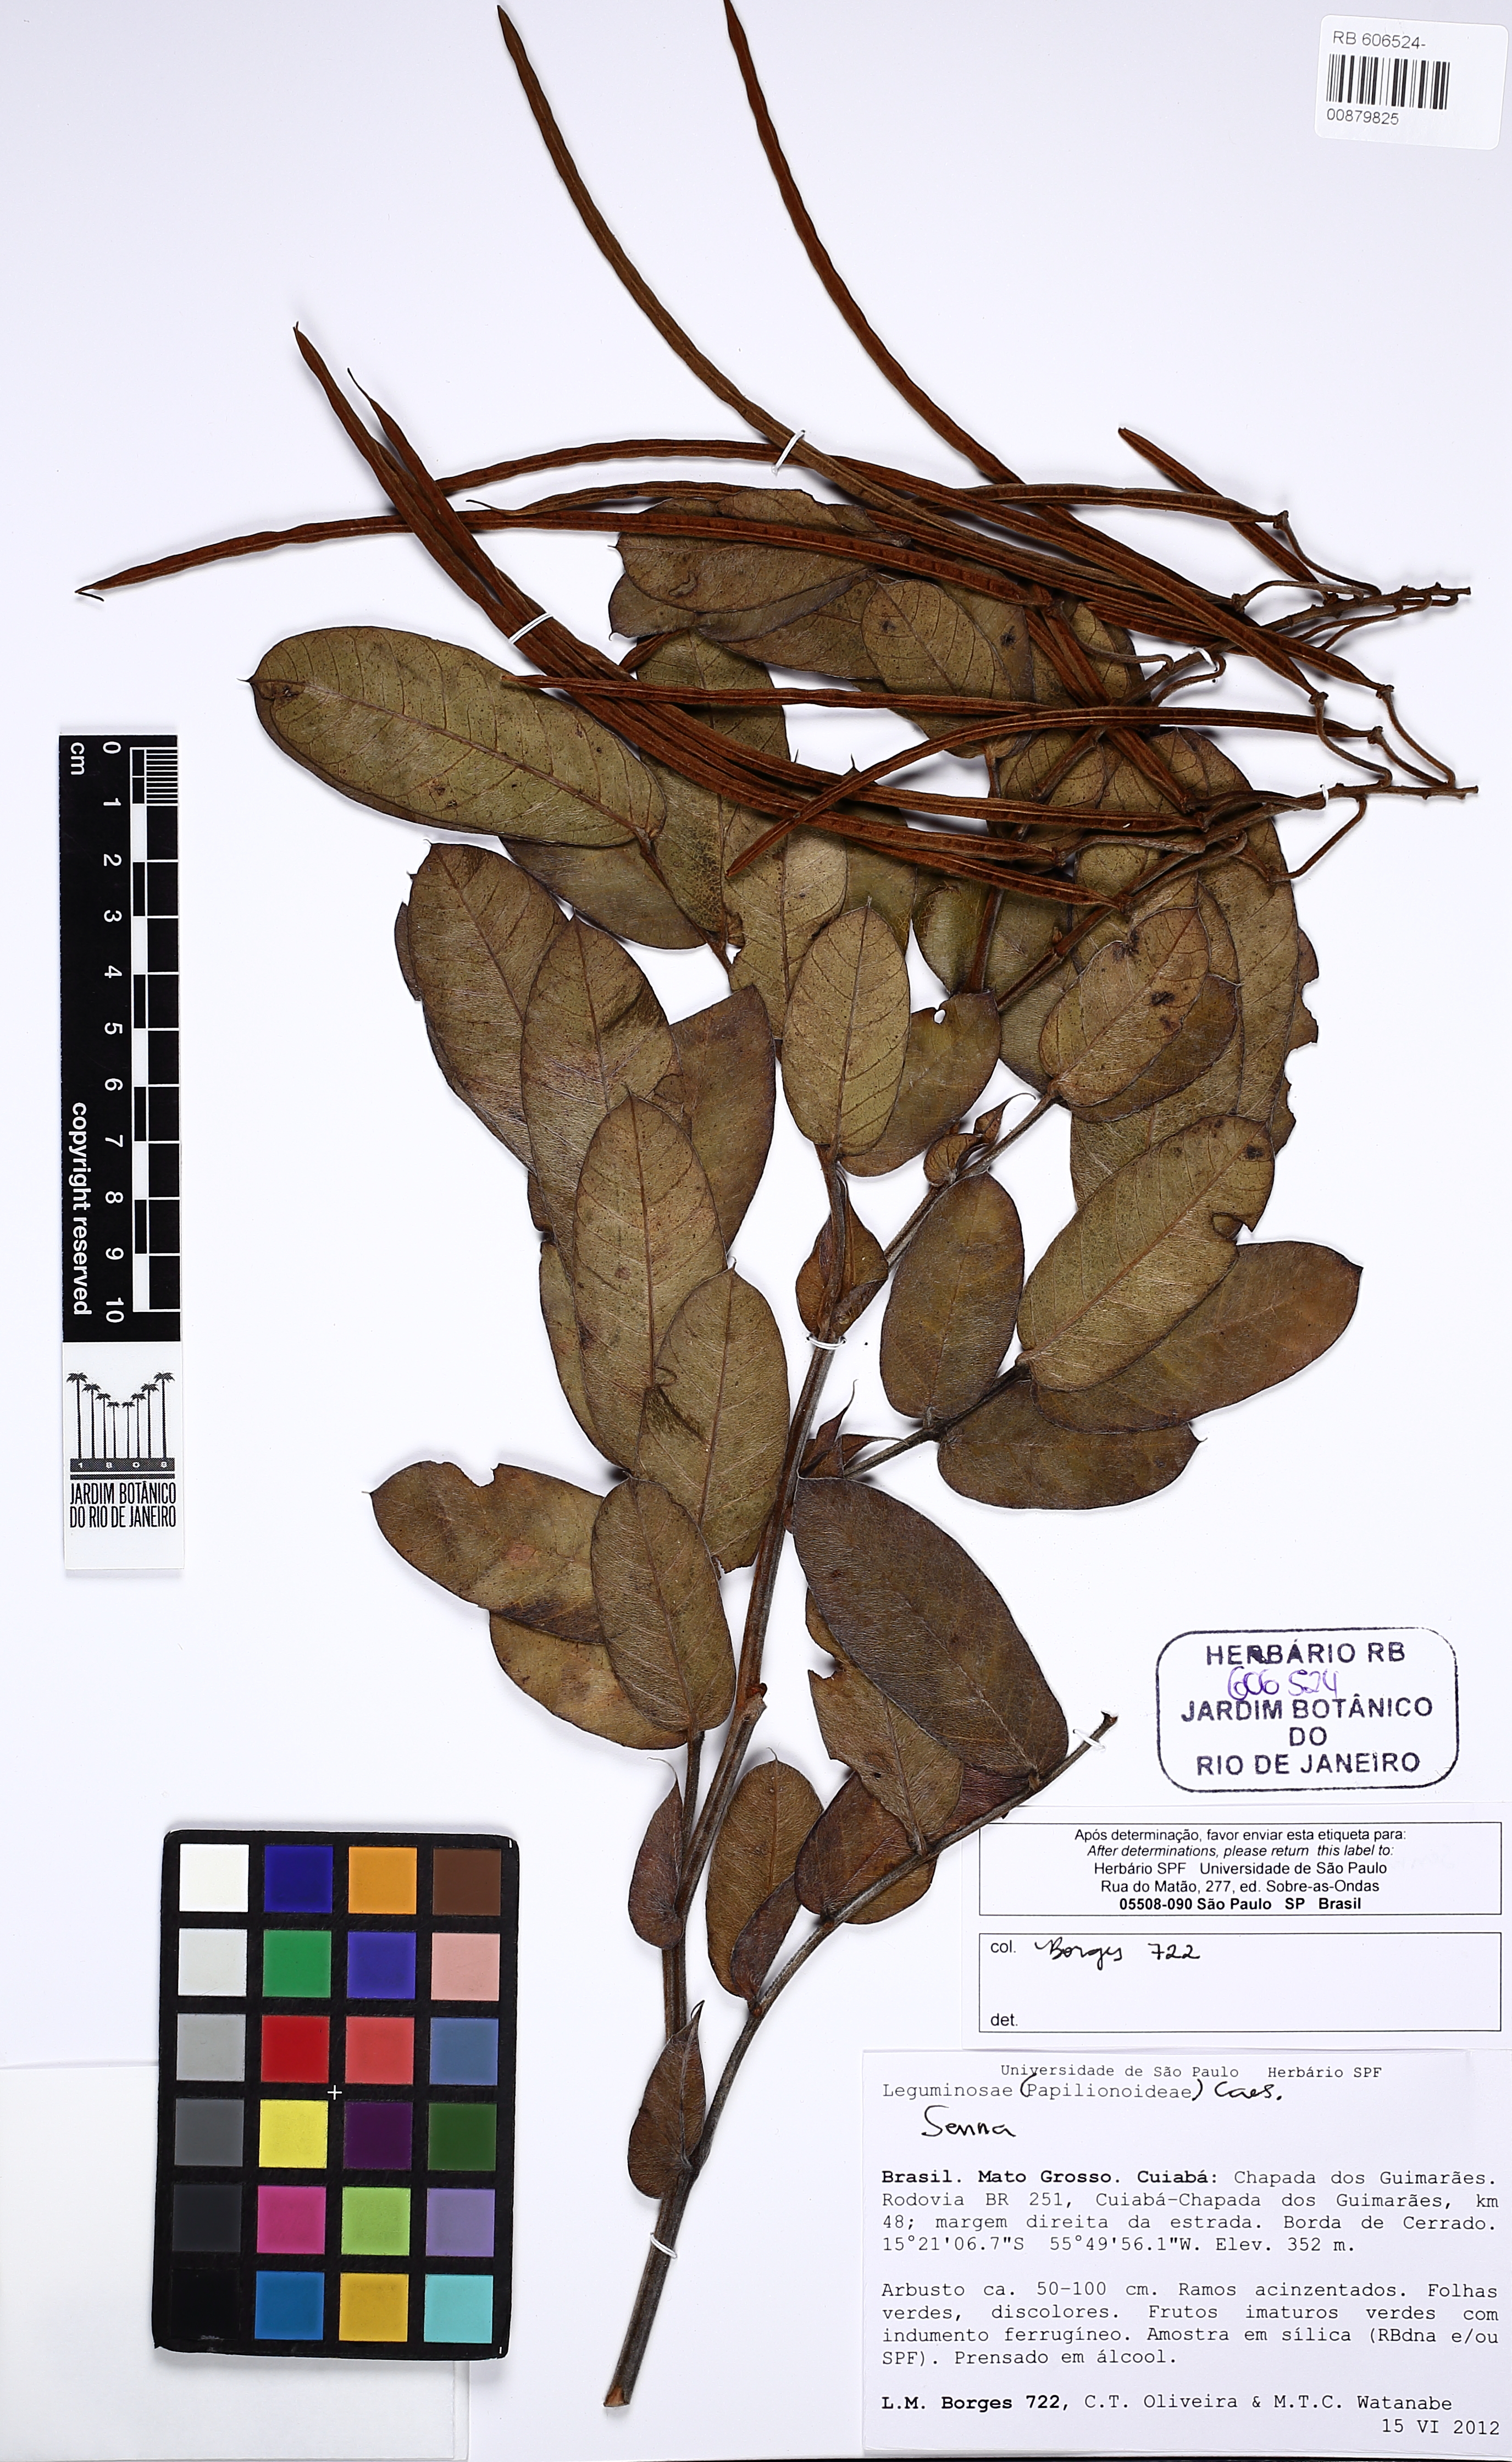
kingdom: Plantae
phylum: Tracheophyta
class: Magnoliopsida
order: Fabales
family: Fabaceae
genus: Senna
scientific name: Senna velutina
